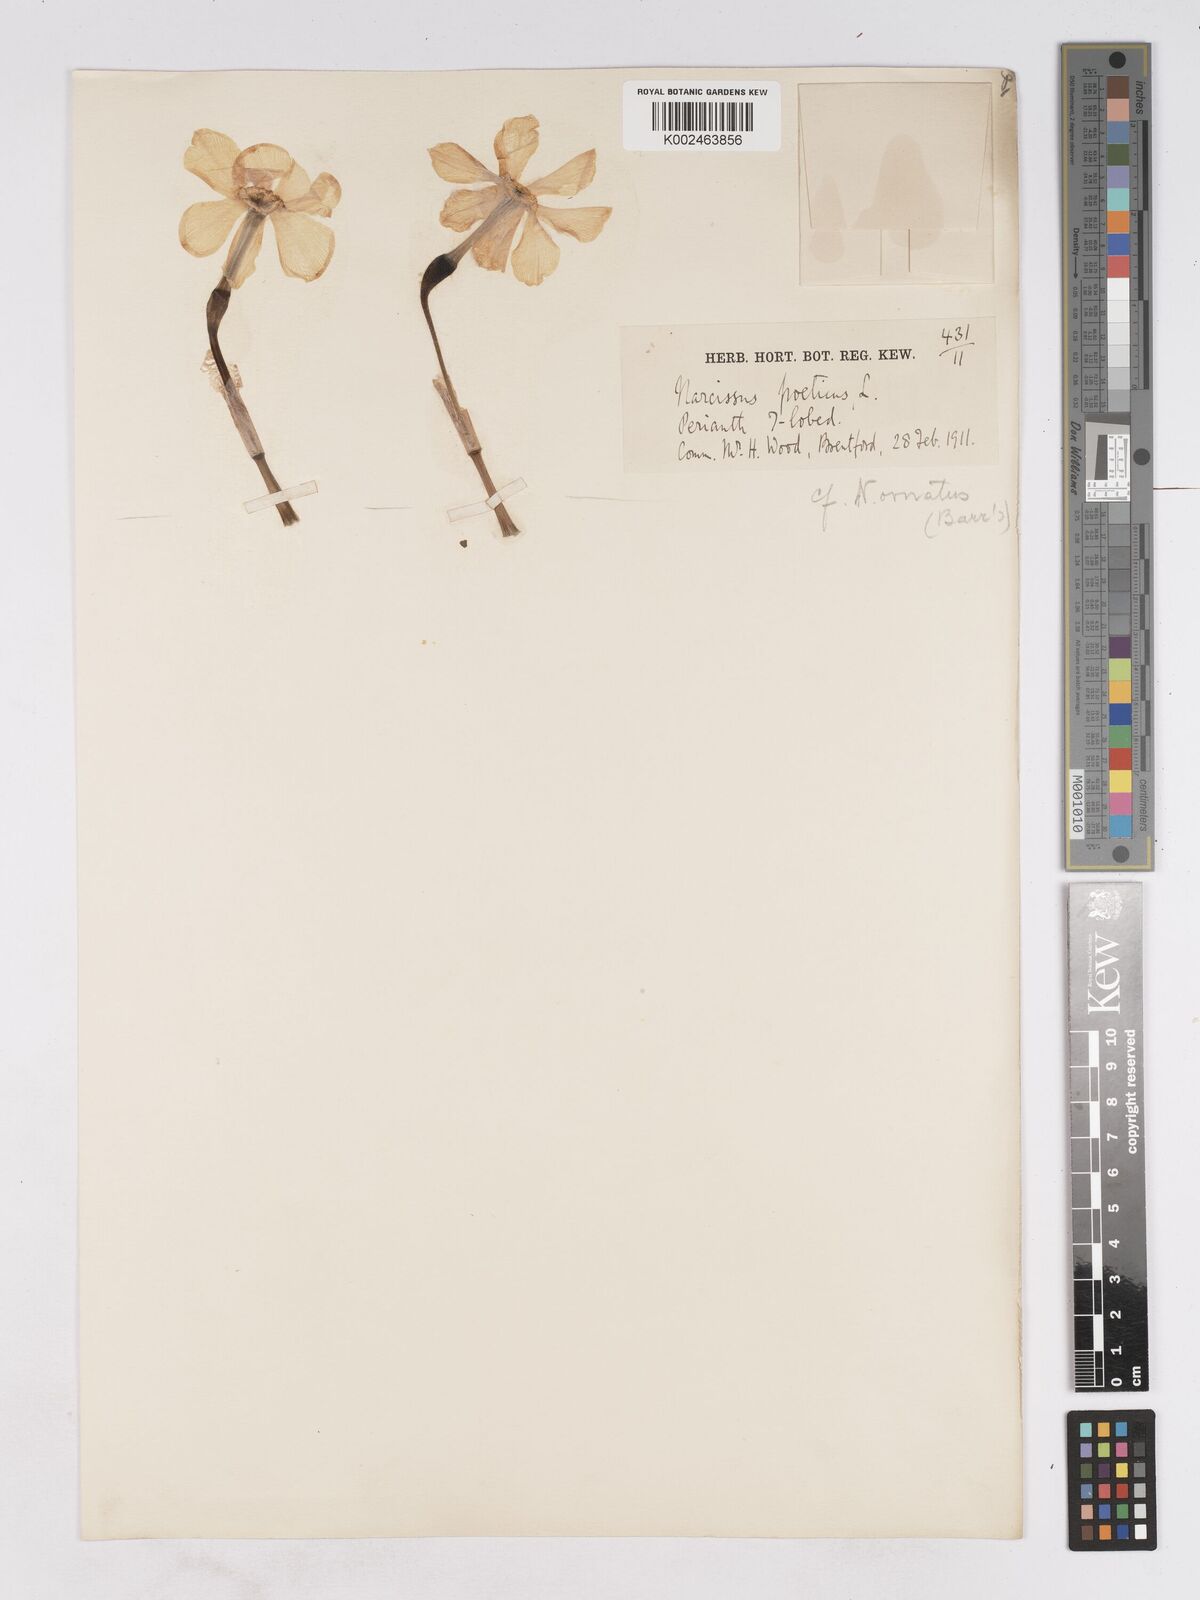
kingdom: Plantae
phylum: Tracheophyta
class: Liliopsida
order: Asparagales
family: Amaryllidaceae
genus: Narcissus
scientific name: Narcissus poeticus
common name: Pheasant's-eye daffodil
